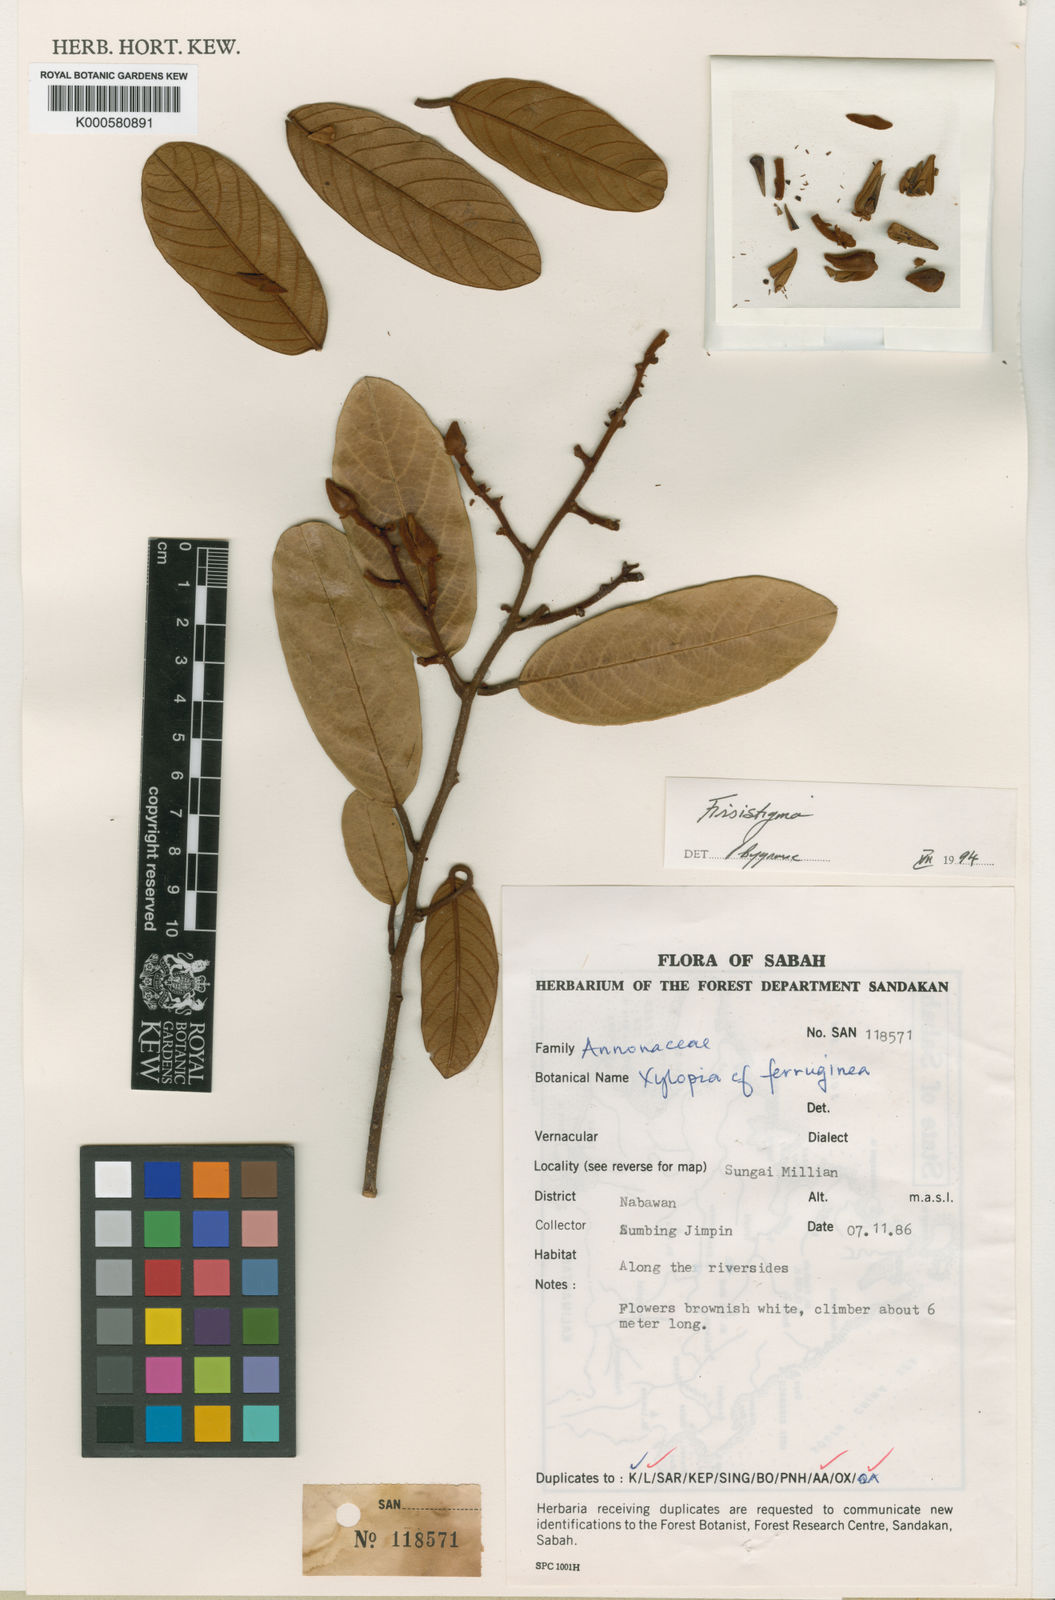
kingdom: Plantae
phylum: Tracheophyta
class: Magnoliopsida
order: Magnoliales
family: Annonaceae
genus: Fissistigma
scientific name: Fissistigma brevistipitatum
